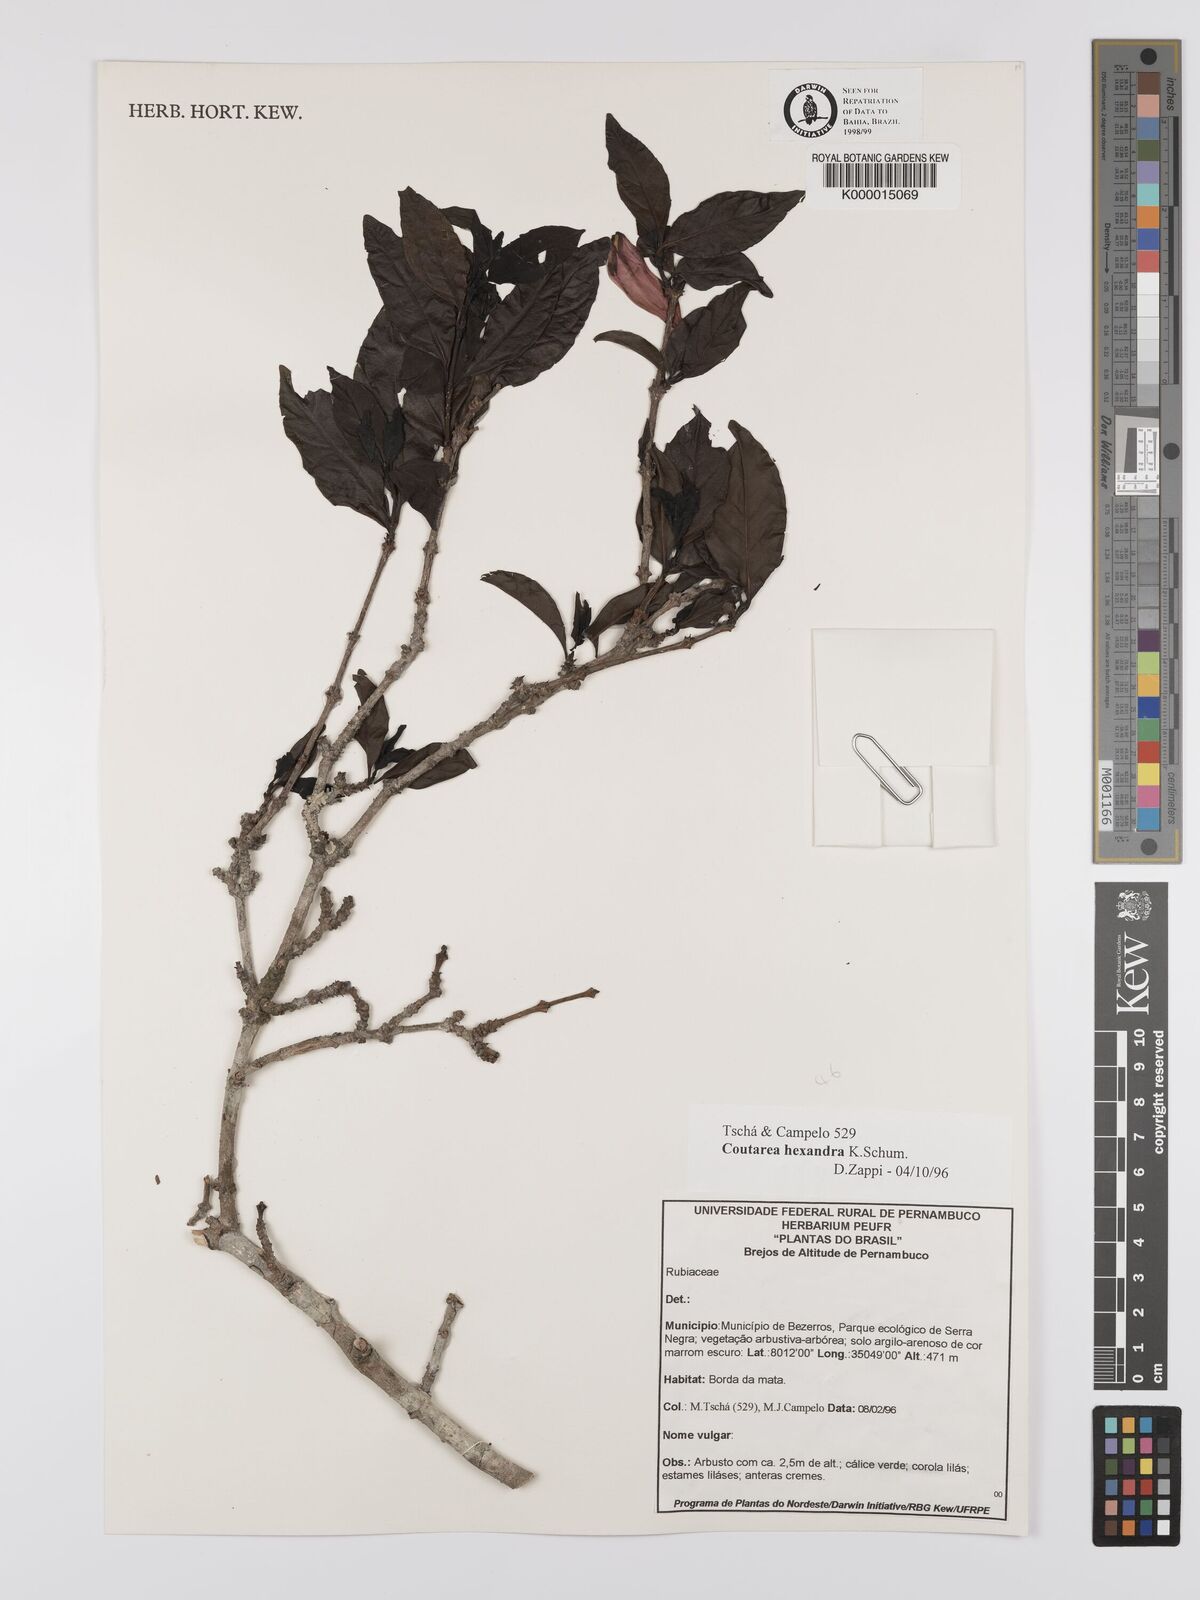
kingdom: Plantae
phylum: Tracheophyta
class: Magnoliopsida
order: Gentianales
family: Rubiaceae
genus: Coutarea
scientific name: Coutarea hexandra
